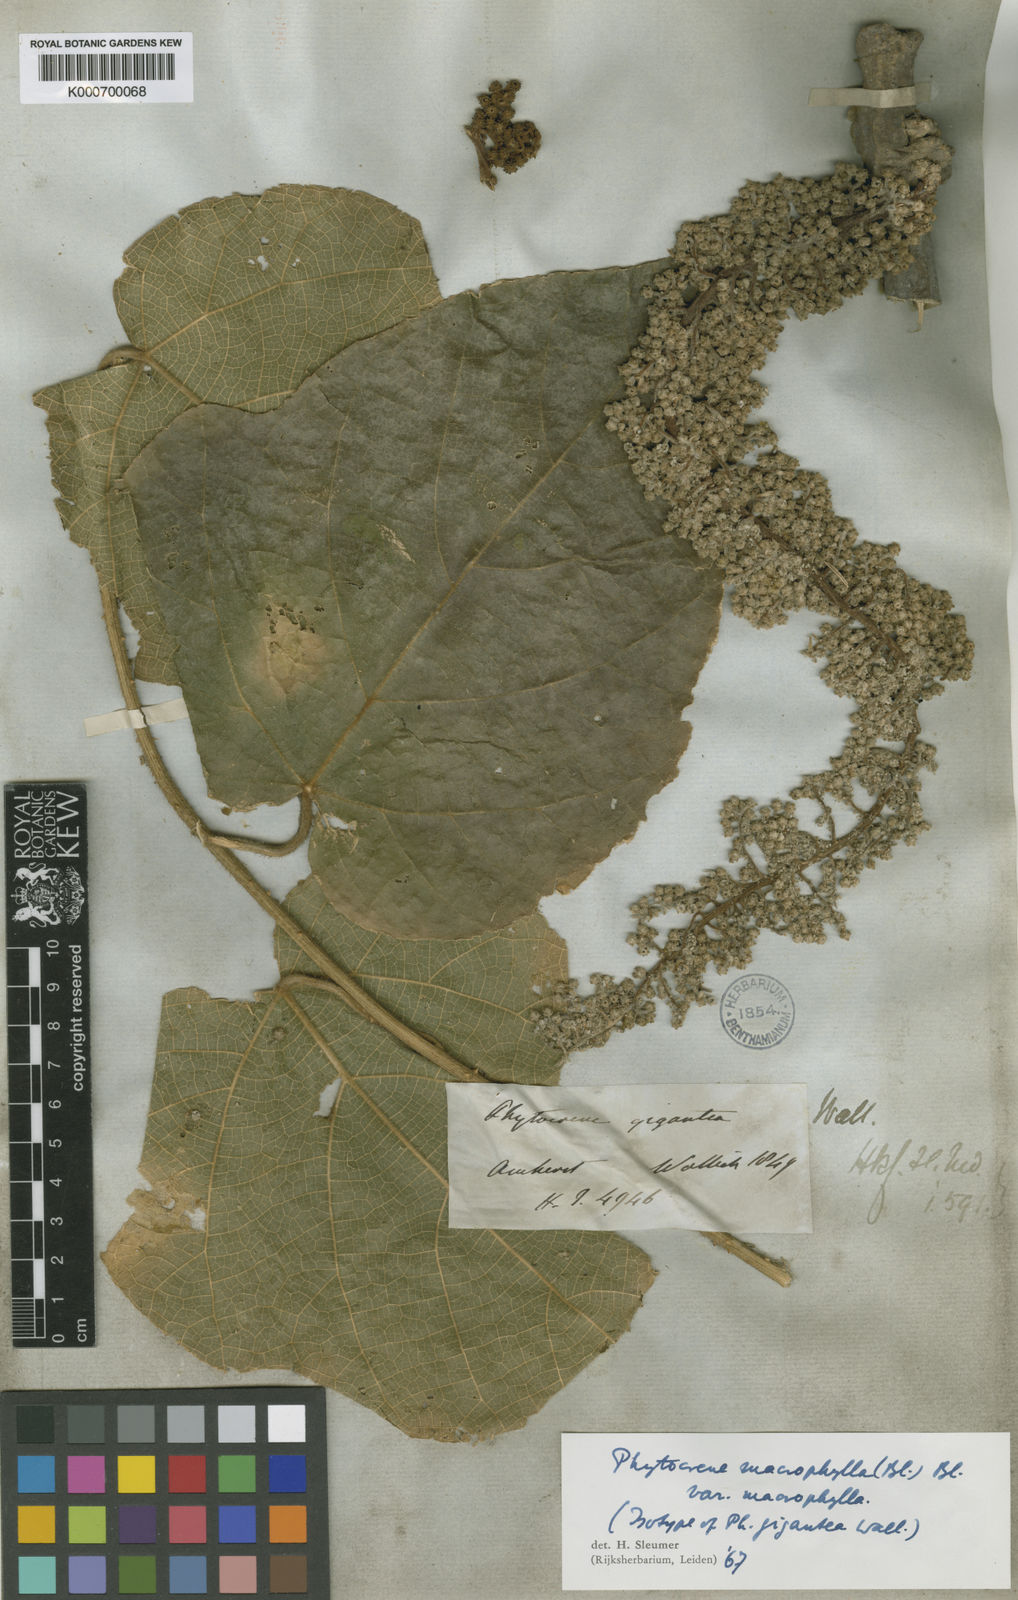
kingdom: Plantae
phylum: Tracheophyta
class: Magnoliopsida
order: Icacinales
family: Icacinaceae
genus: Phytocrene
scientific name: Phytocrene macrophylla
